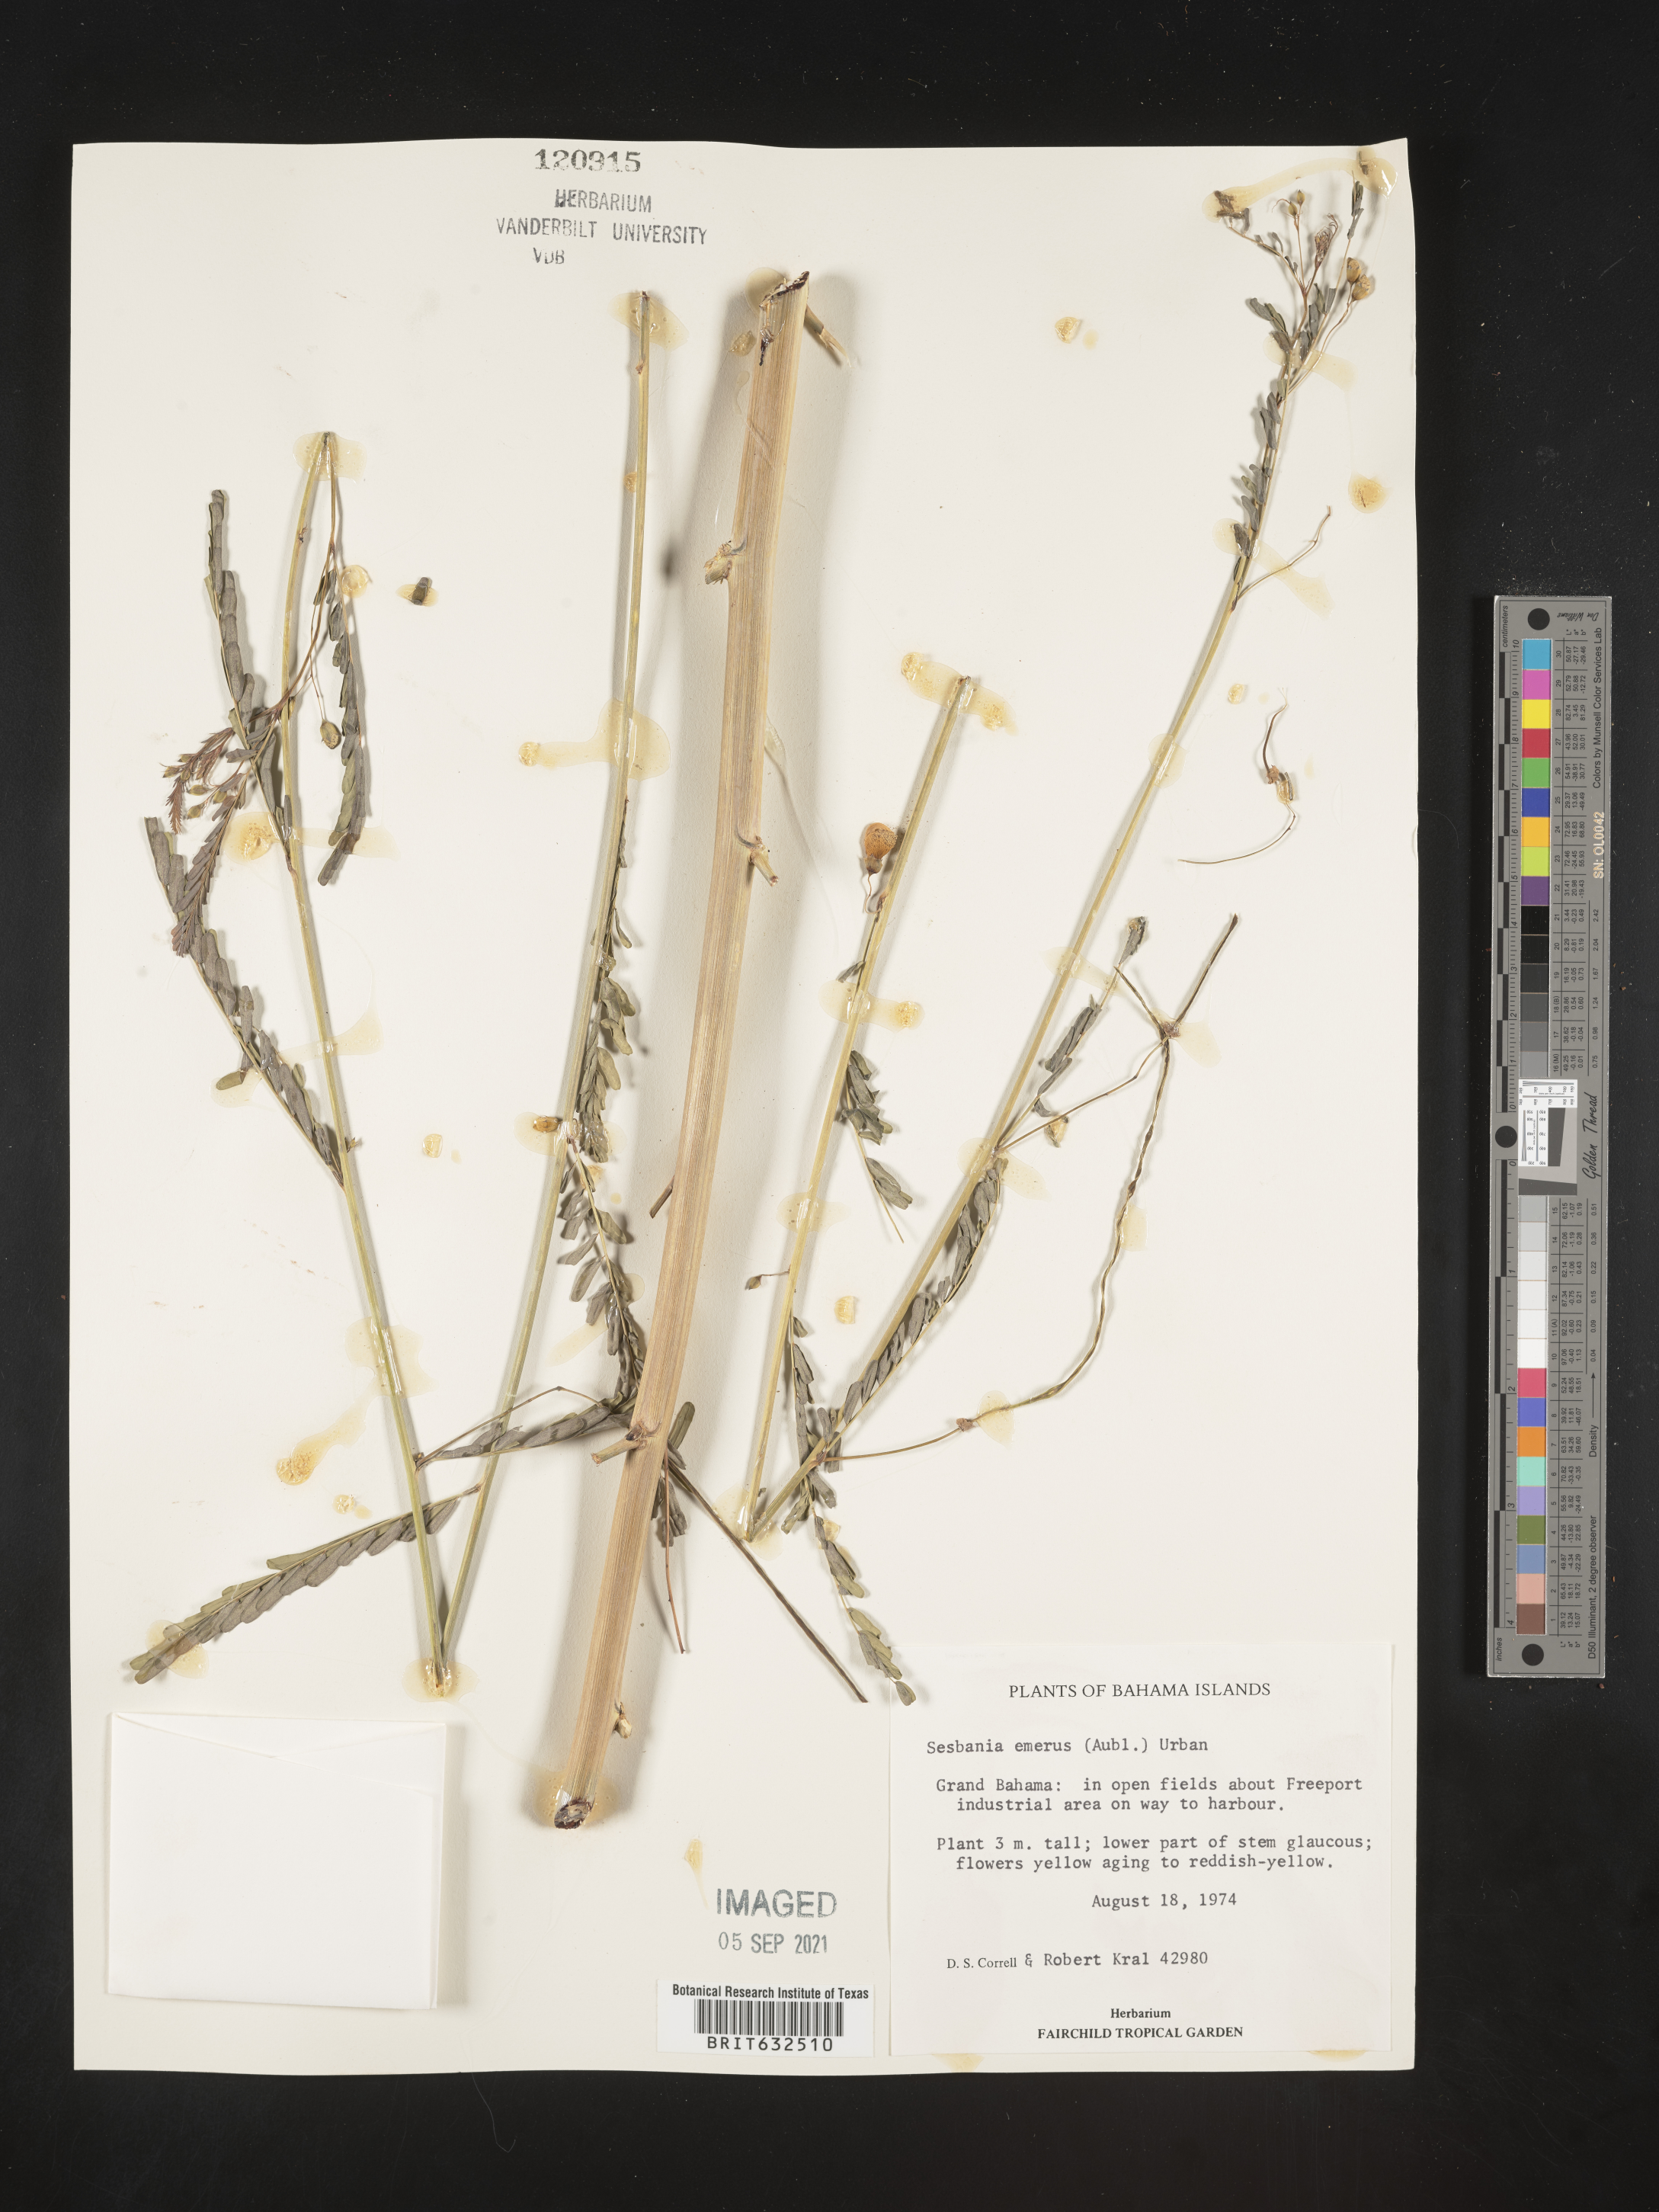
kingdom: Plantae
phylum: Tracheophyta
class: Magnoliopsida
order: Fabales
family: Fabaceae
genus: Sesbania
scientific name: Sesbania
